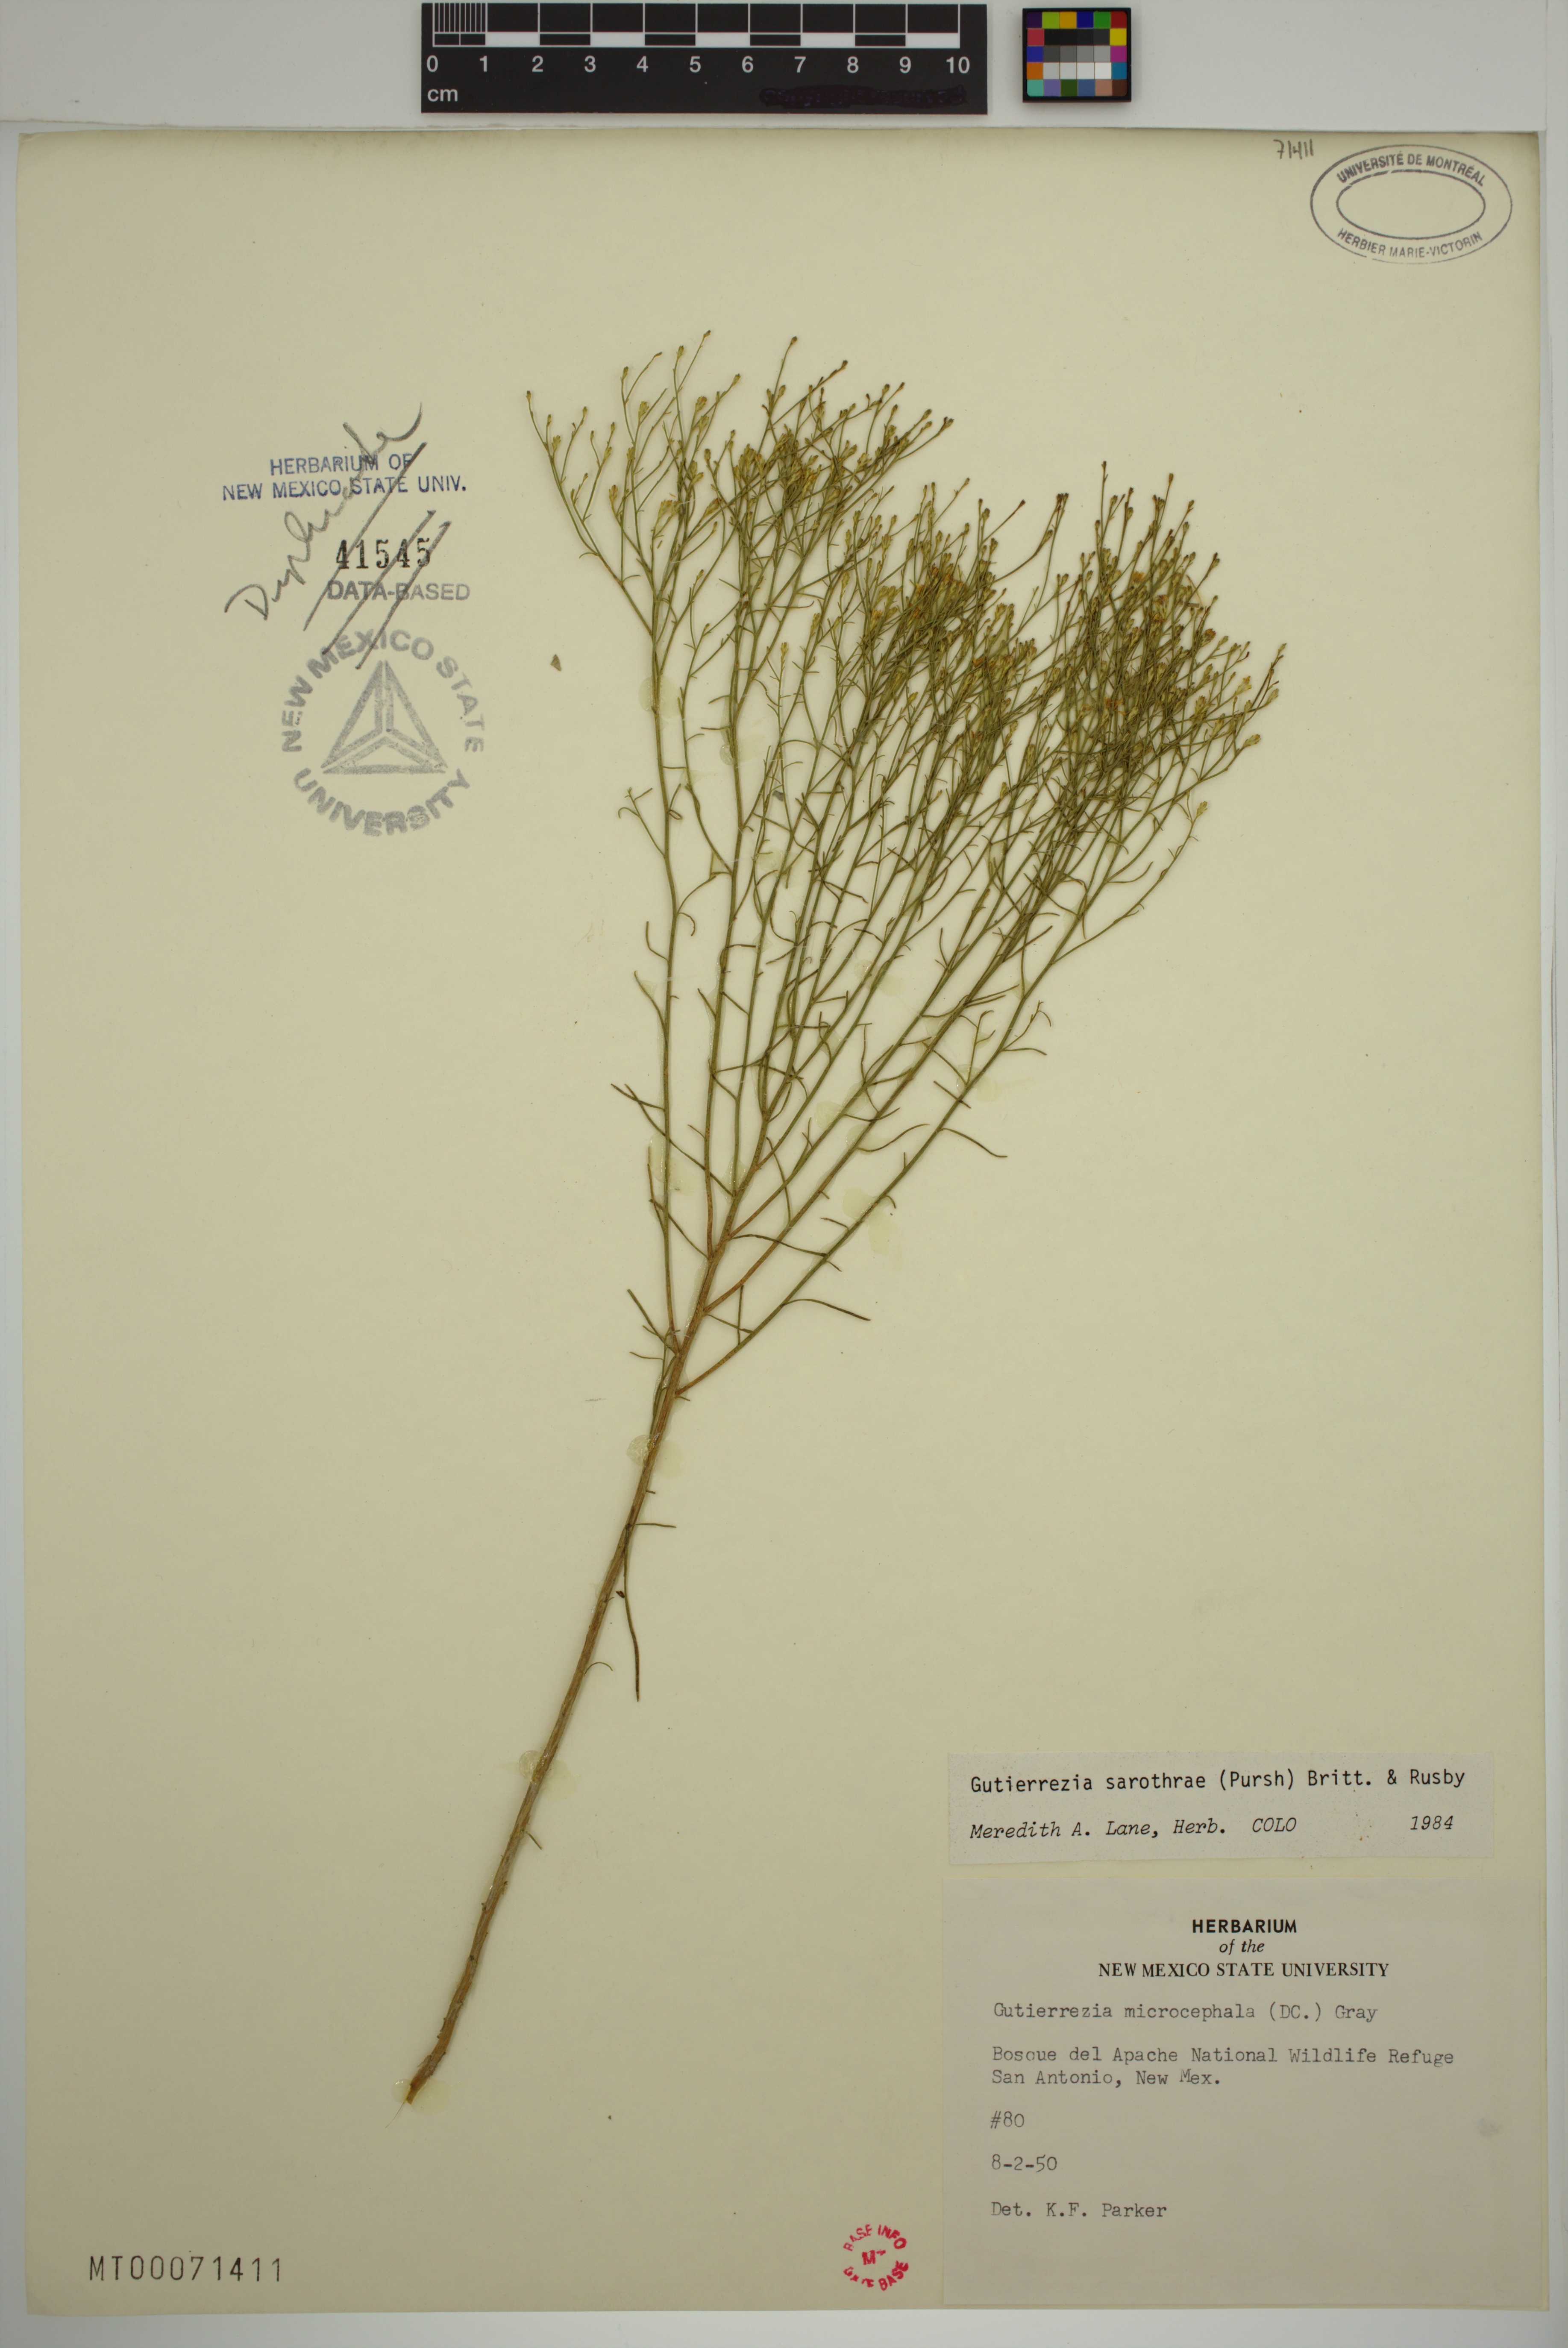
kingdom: Plantae
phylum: Tracheophyta
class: Magnoliopsida
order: Asterales
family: Asteraceae
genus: Gutierrezia
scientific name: Gutierrezia sarothrae
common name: Broom snakeweed
